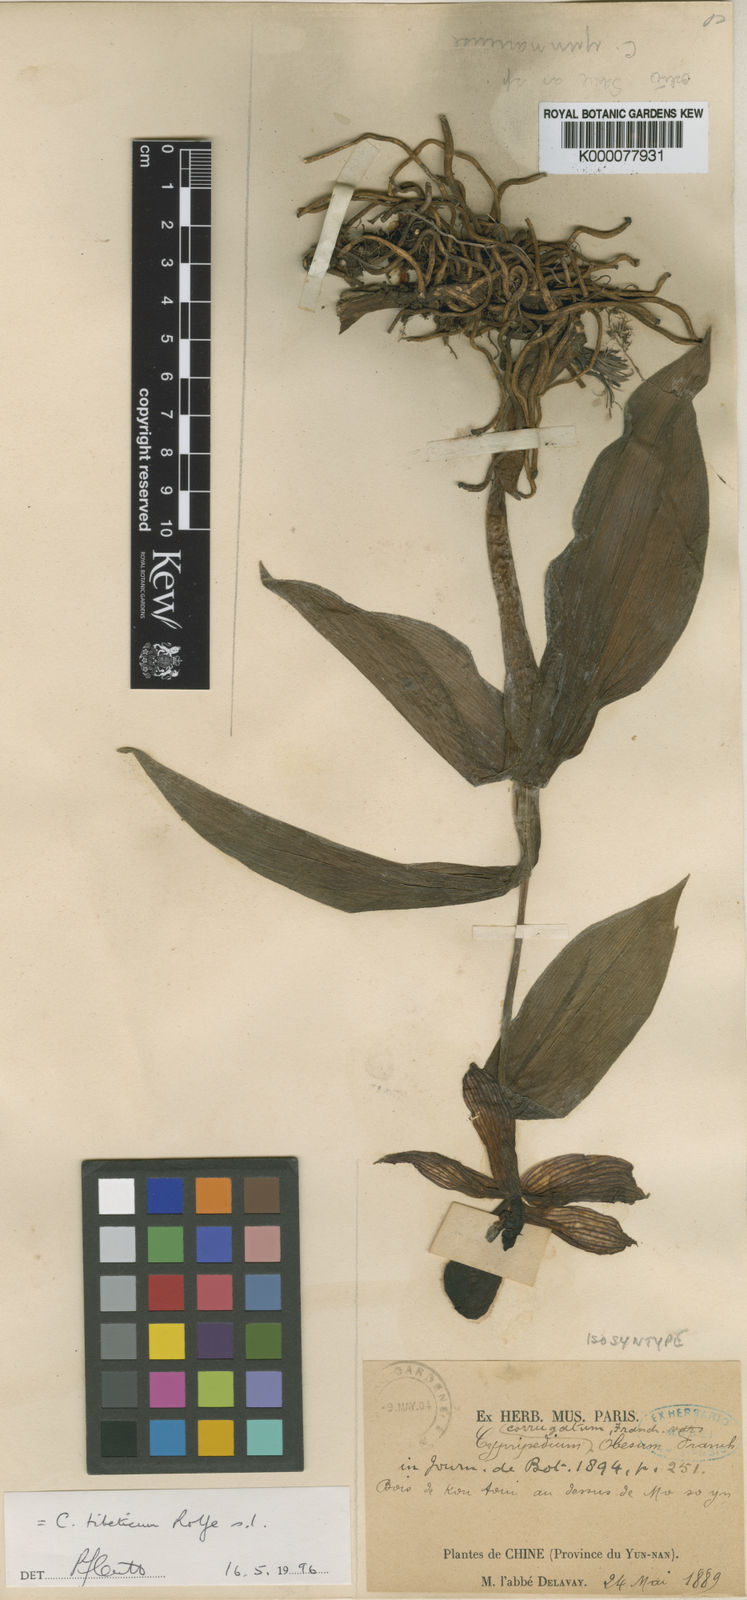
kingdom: Plantae
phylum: Tracheophyta
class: Liliopsida
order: Asparagales
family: Orchidaceae
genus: Cypripedium
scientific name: Cypripedium tibeticum
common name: Tibetan cypripedium
